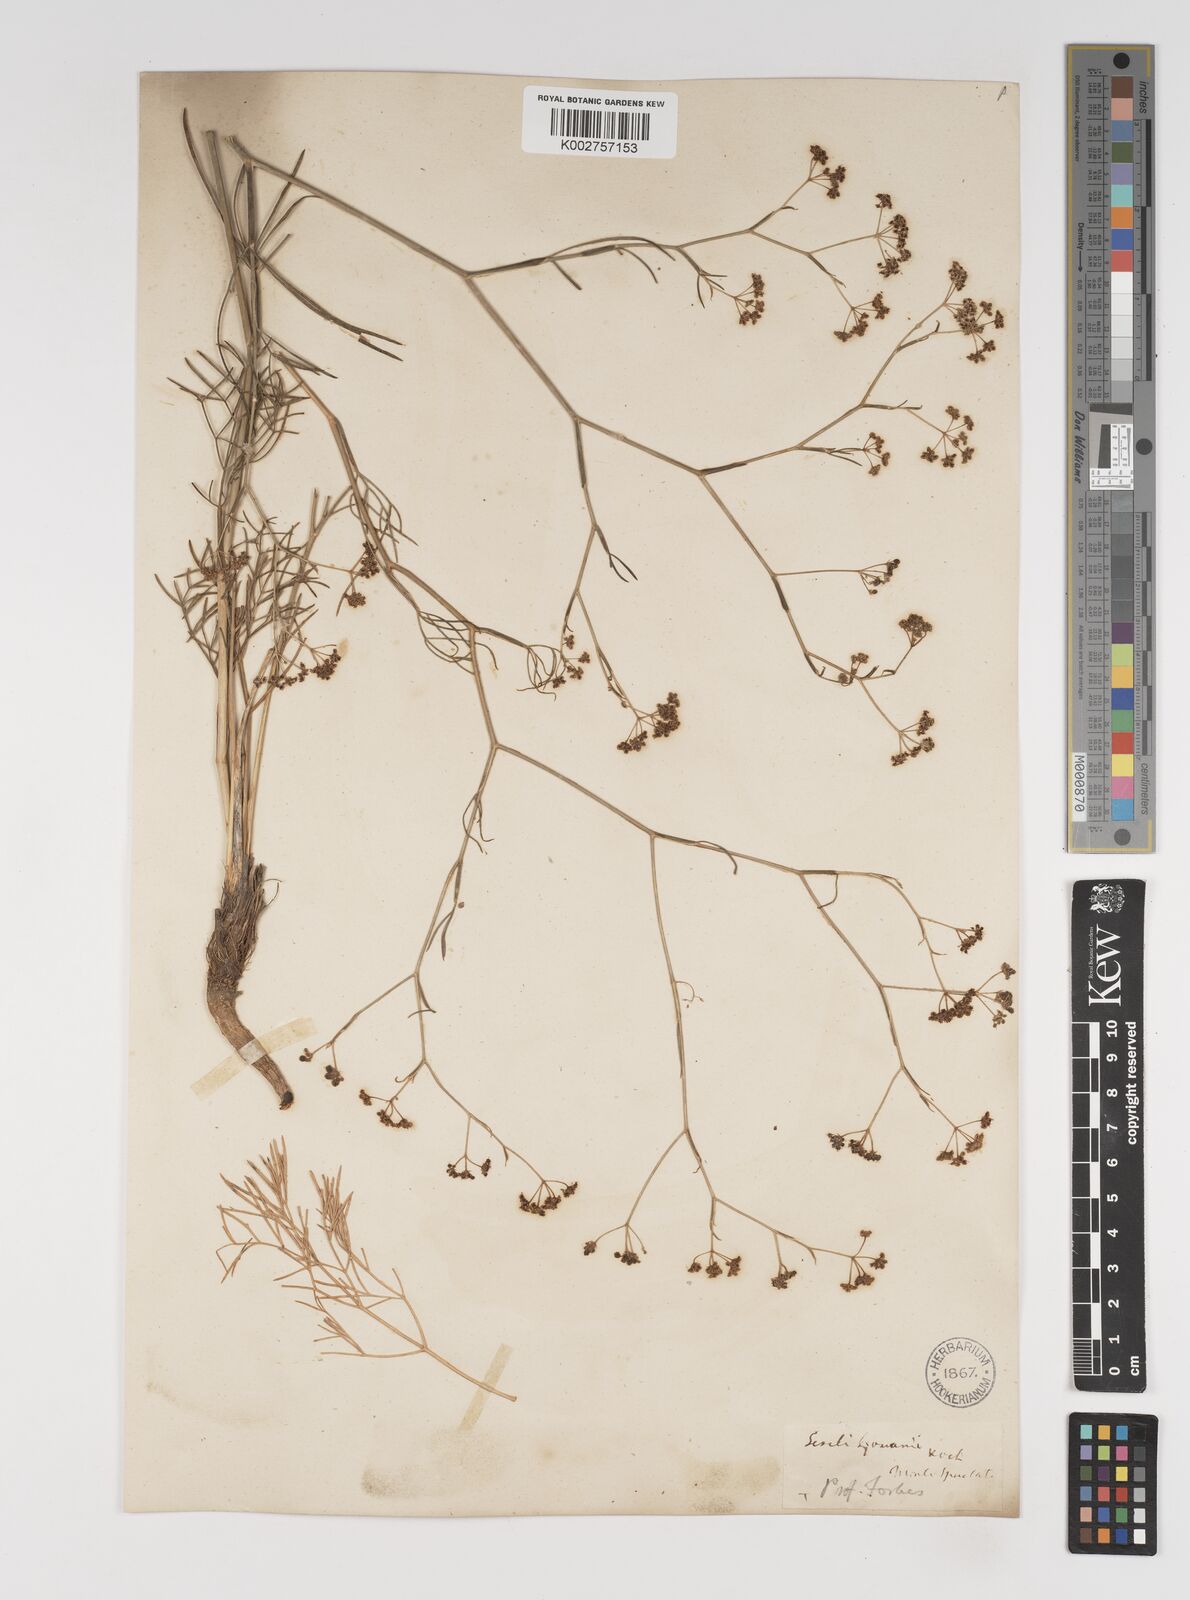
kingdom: Plantae
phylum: Tracheophyta
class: Magnoliopsida
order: Apiales
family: Apiaceae
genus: Seseli
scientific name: Seseli longifolium
